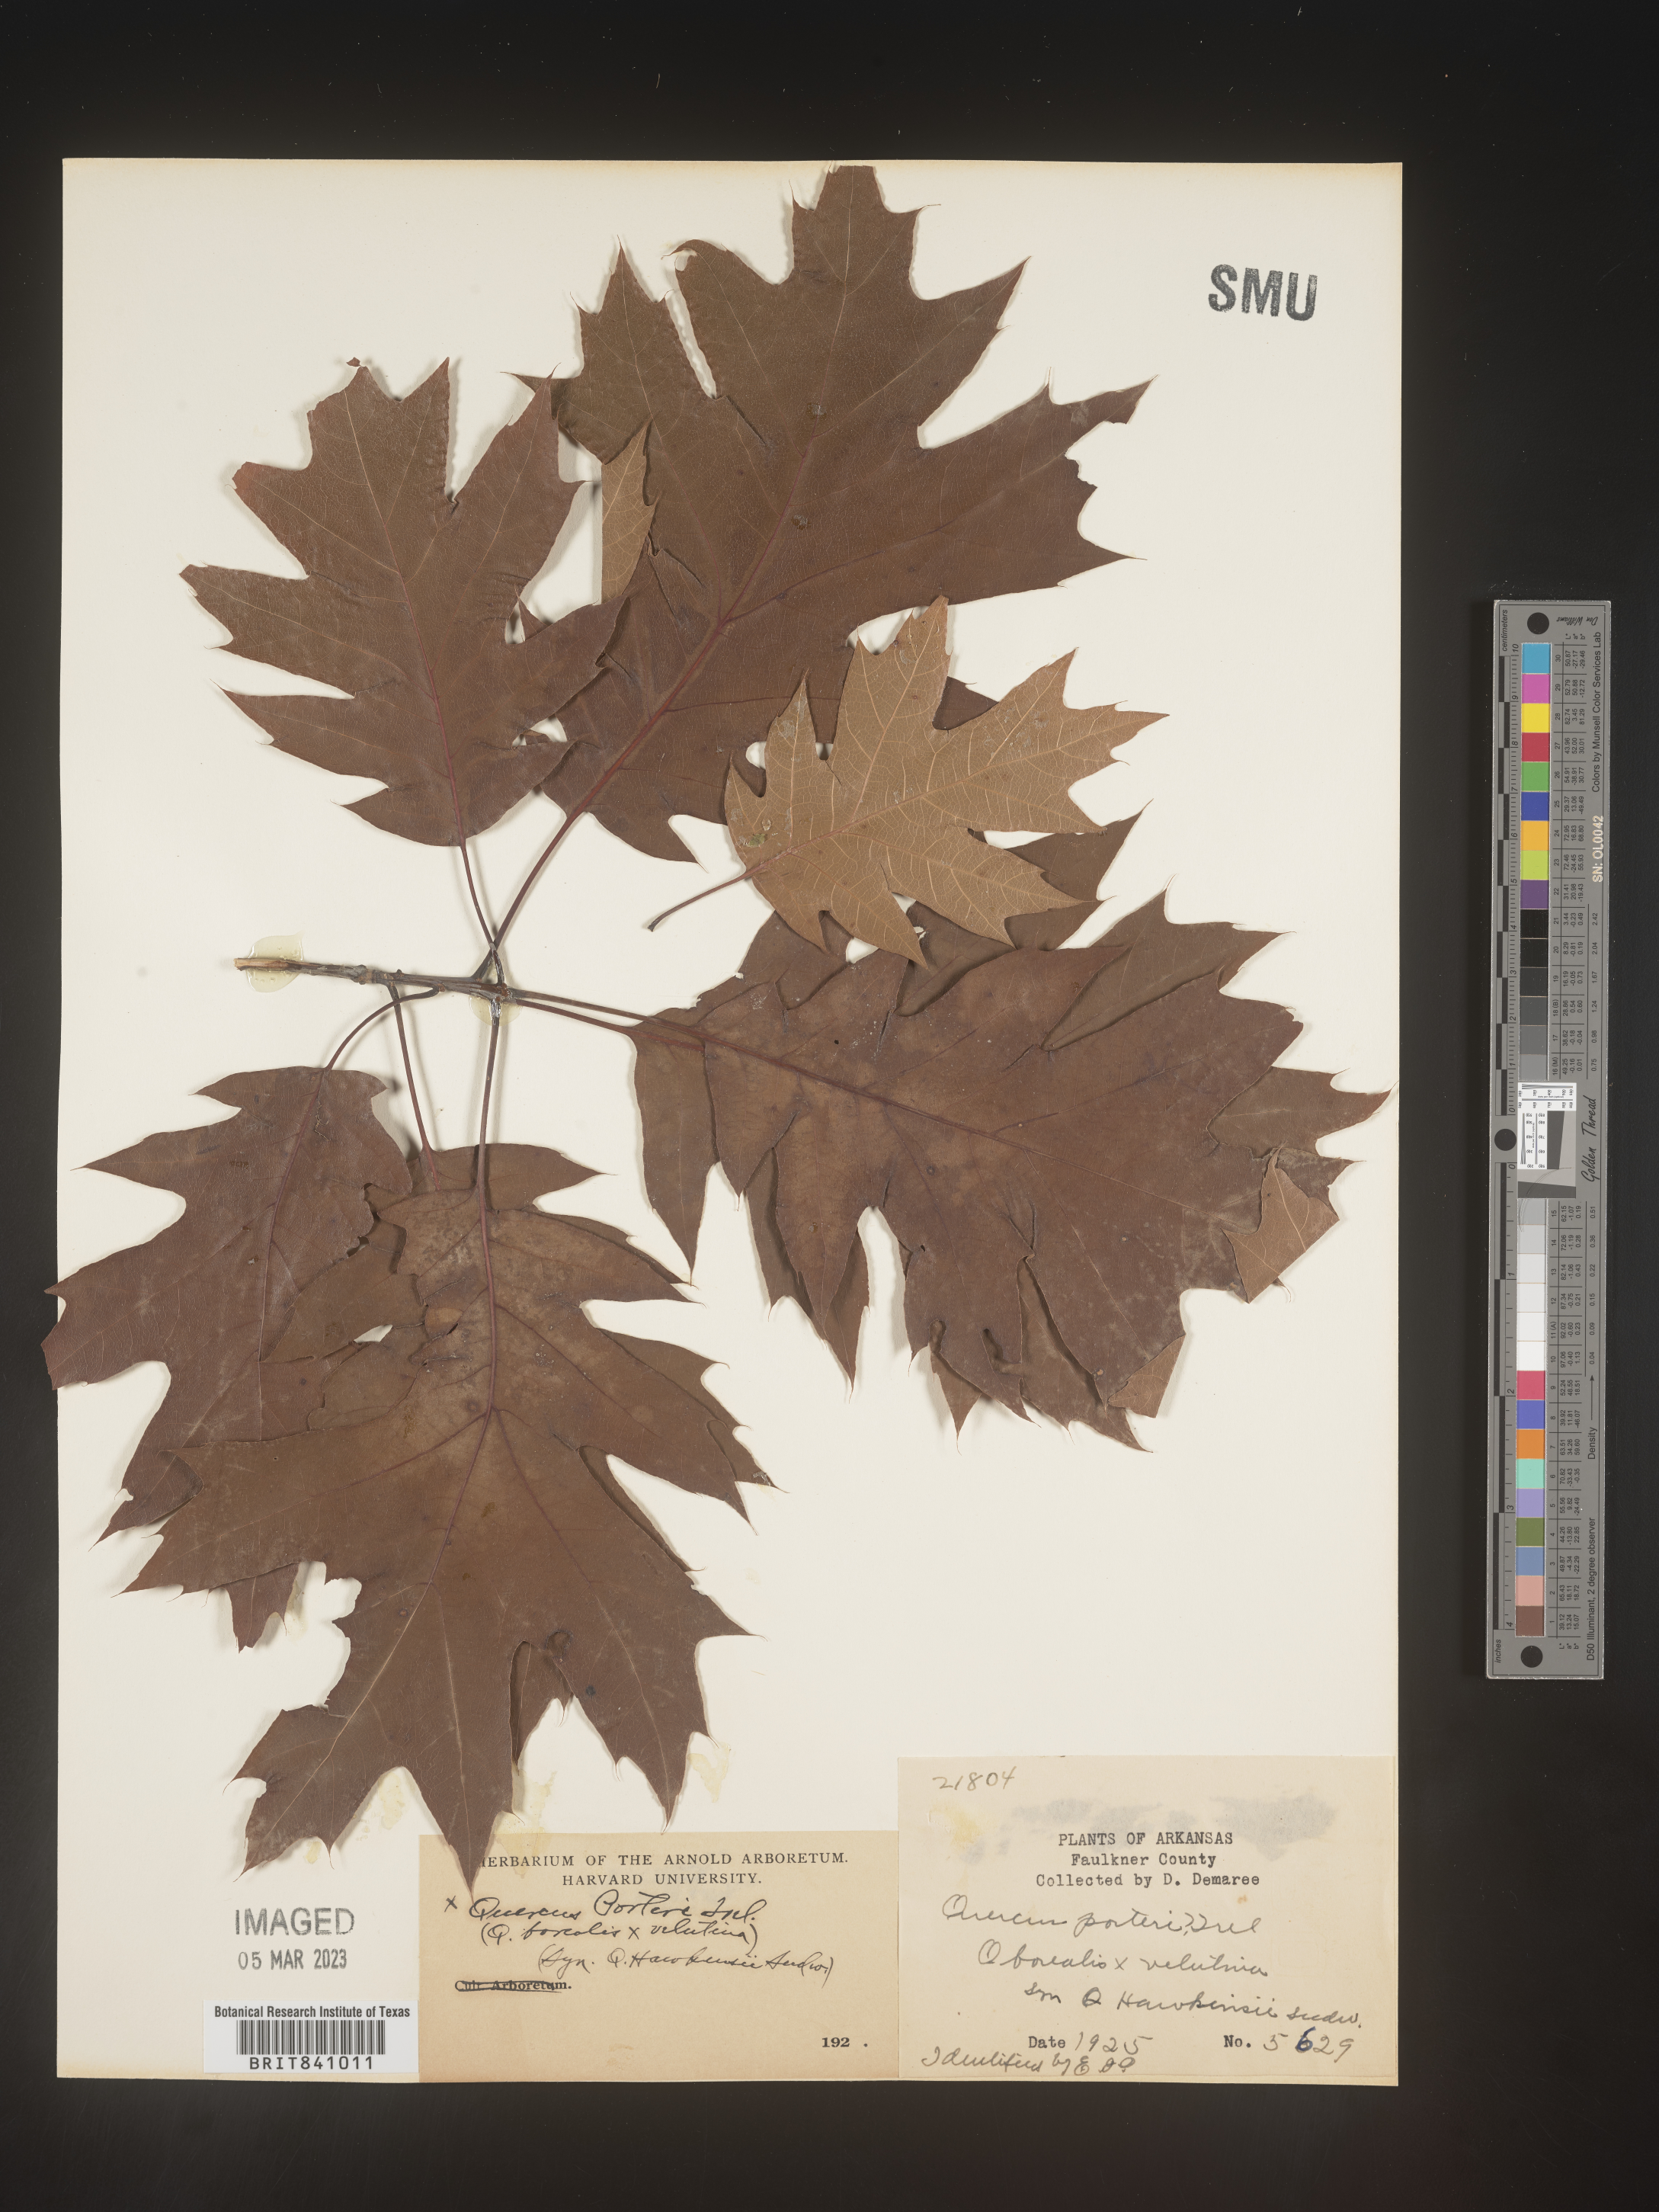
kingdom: Plantae
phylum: Tracheophyta
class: Magnoliopsida
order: Fagales
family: Fagaceae
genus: Quercus
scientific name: Quercus hawkinsiae
